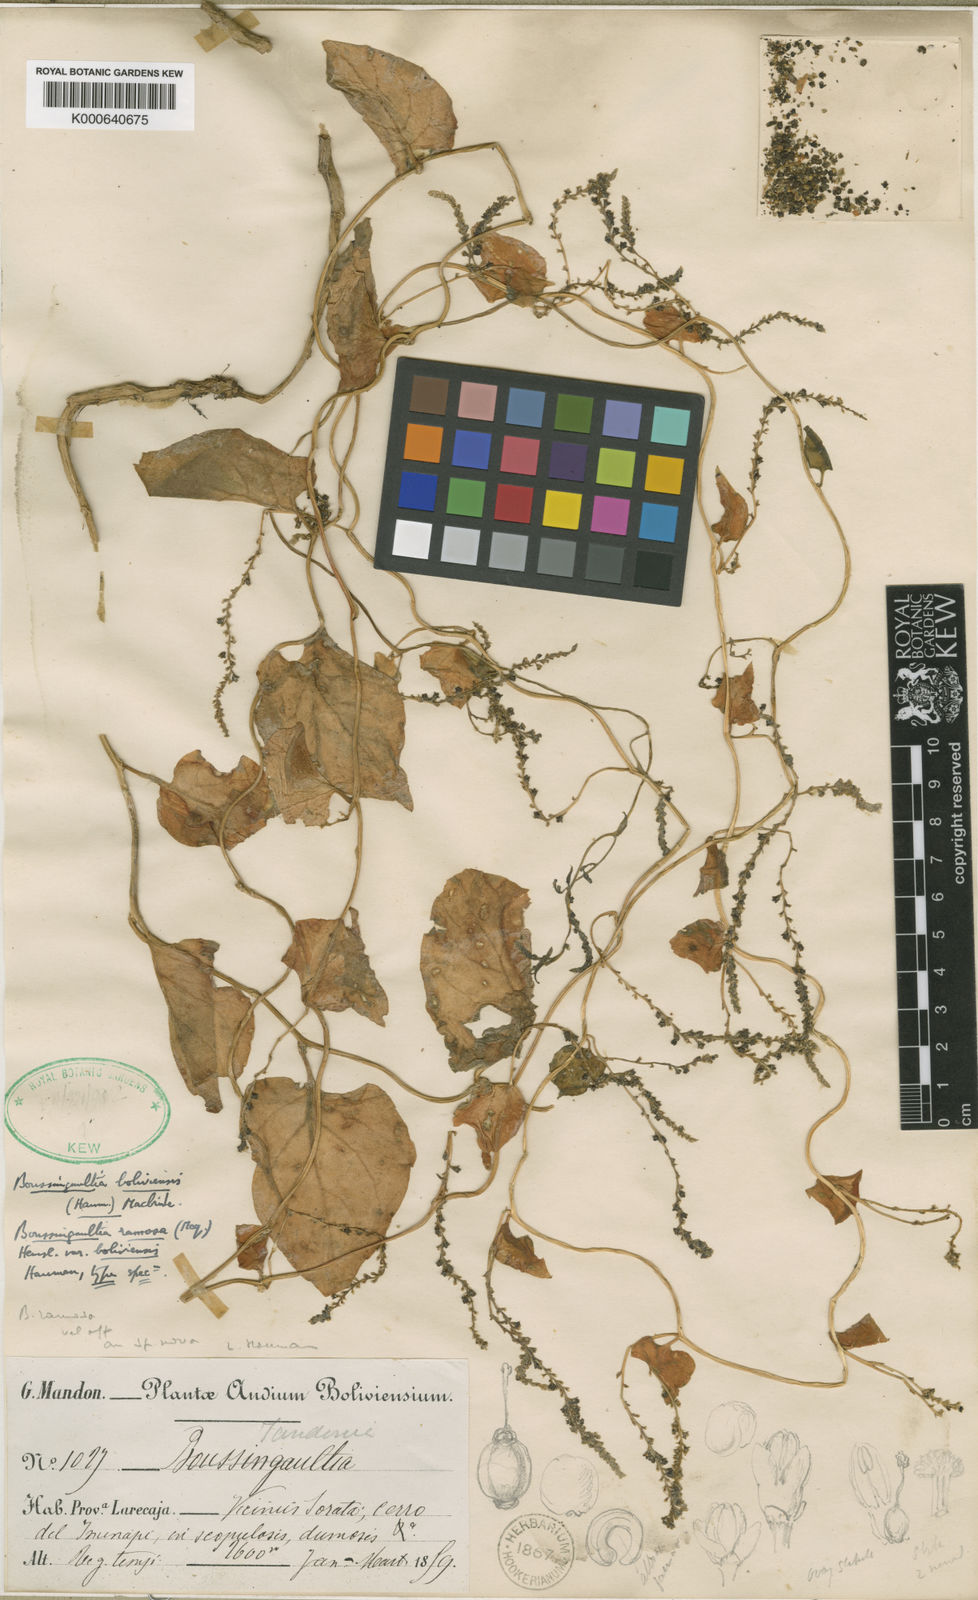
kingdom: Plantae
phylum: Tracheophyta
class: Magnoliopsida
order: Caryophyllales
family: Basellaceae
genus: Anredera
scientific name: Anredera ramosa
